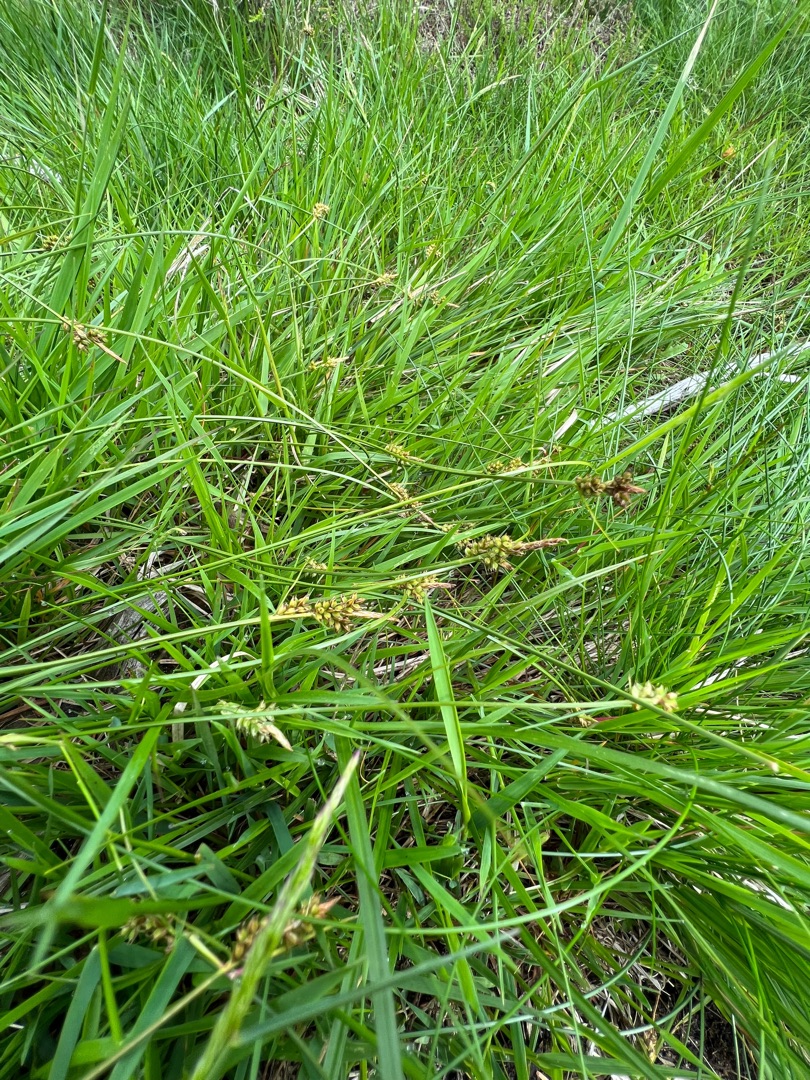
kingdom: Plantae
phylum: Tracheophyta
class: Liliopsida
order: Poales
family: Cyperaceae
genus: Carex
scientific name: Carex pilulifera
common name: Pille-star
